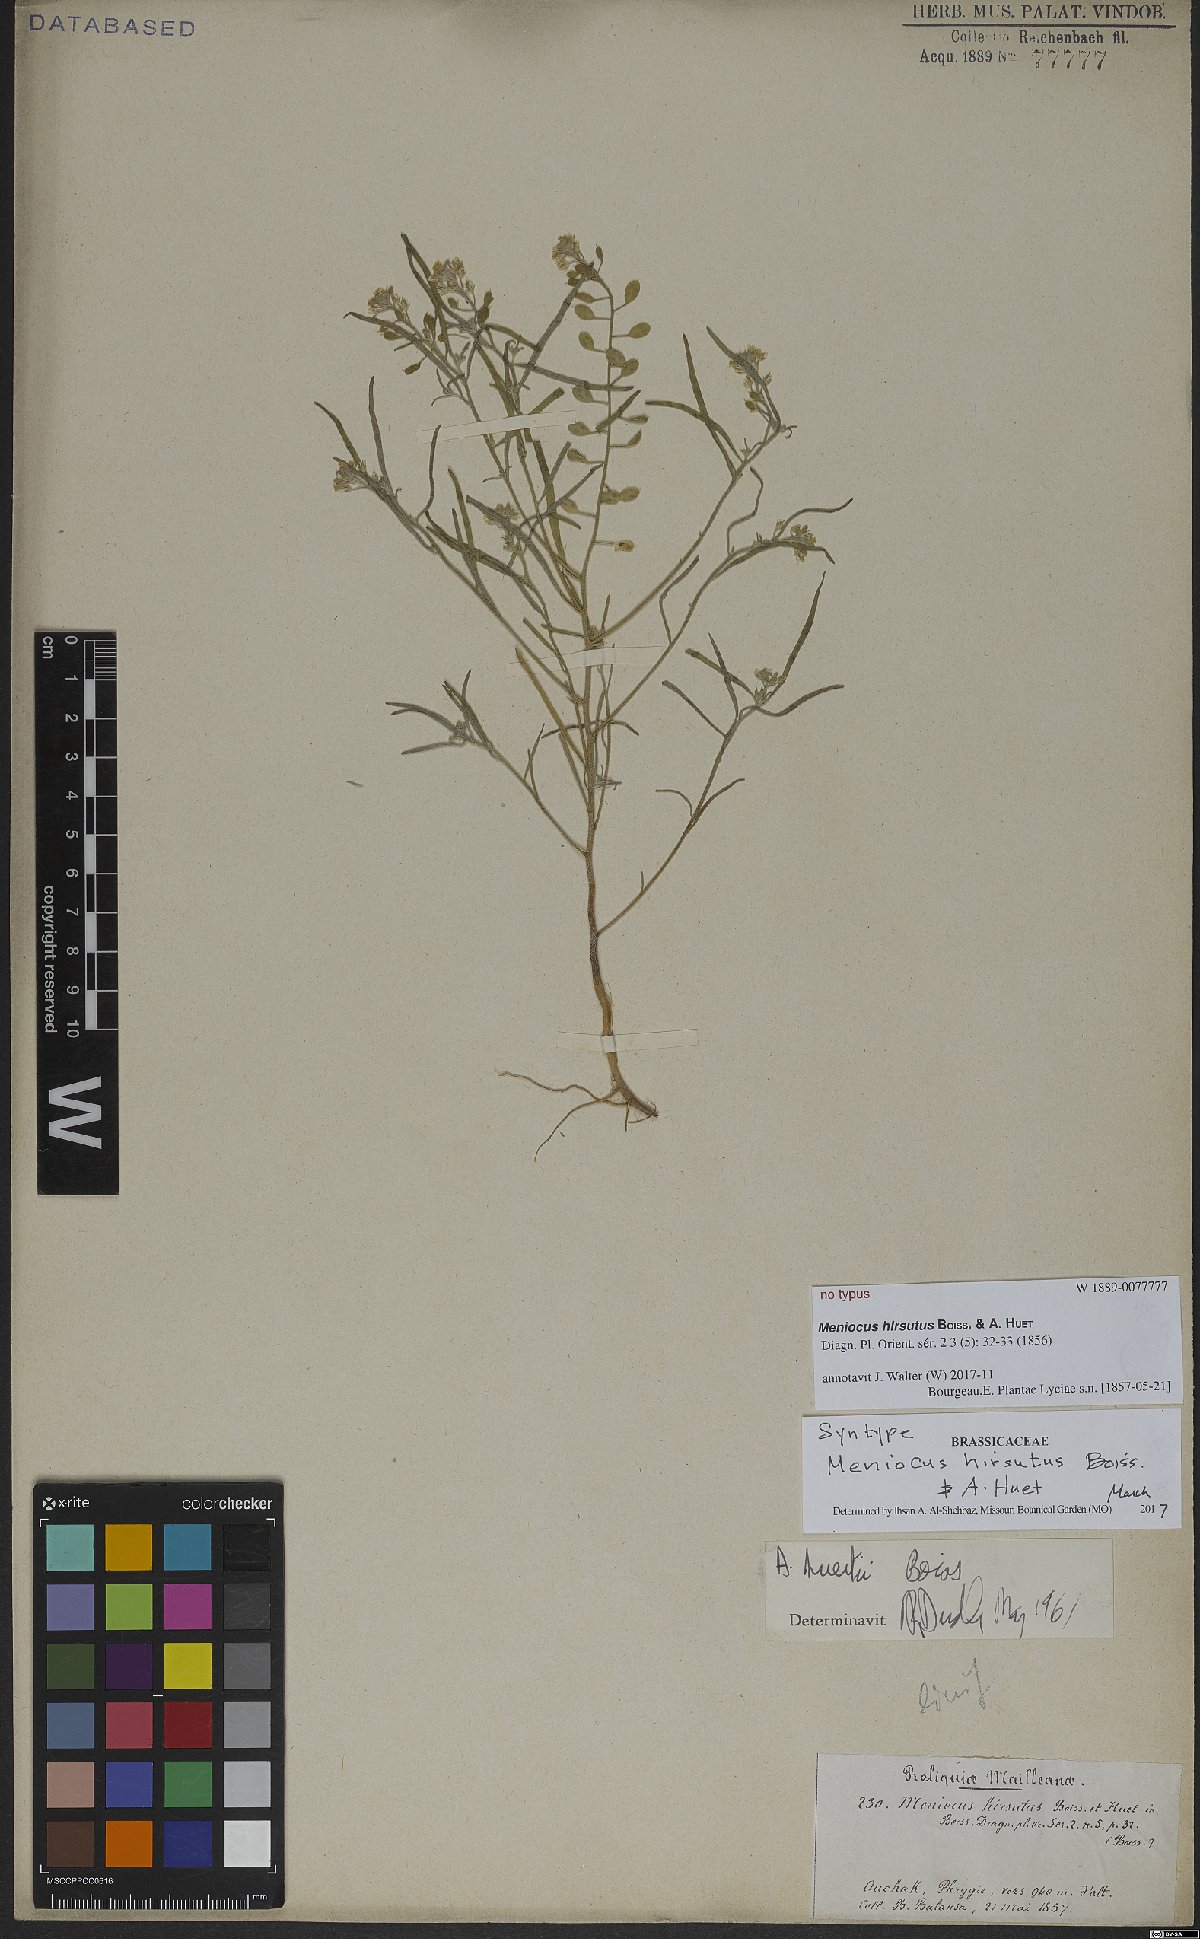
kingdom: Plantae
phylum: Tracheophyta
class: Magnoliopsida
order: Brassicales
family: Brassicaceae
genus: Meniocus
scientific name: Meniocus hirsutus
